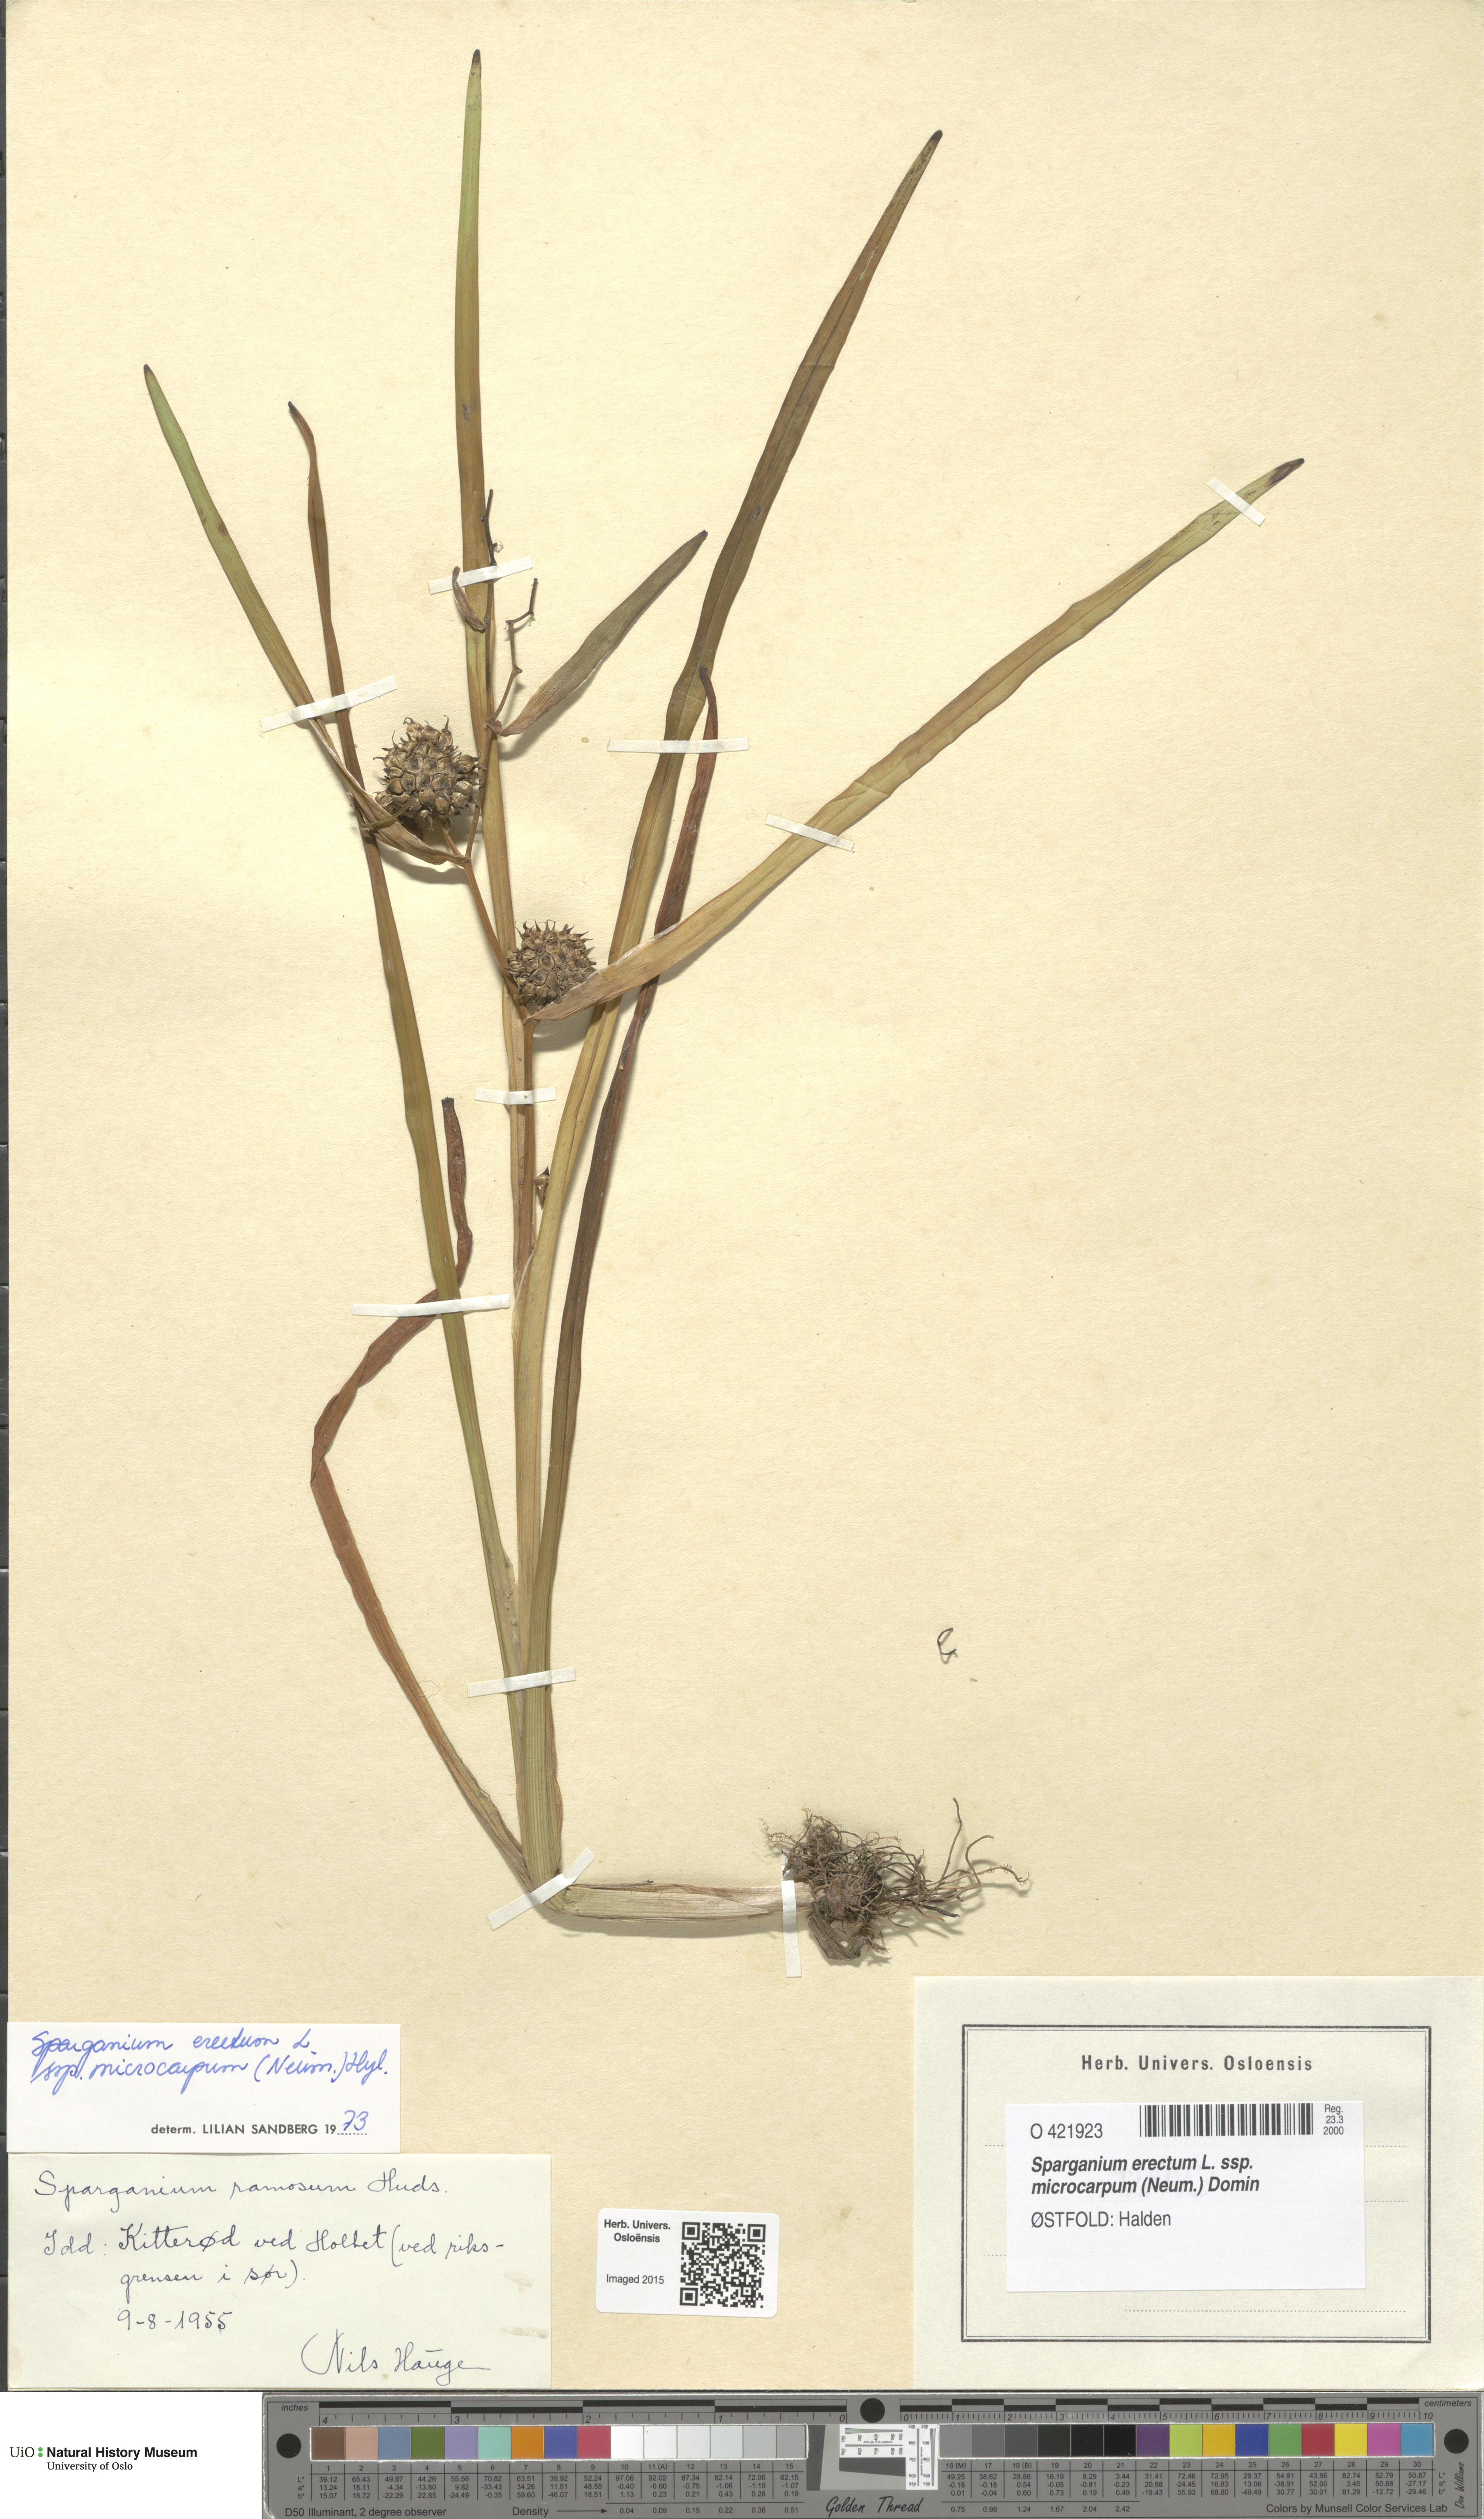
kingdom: Plantae
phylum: Tracheophyta
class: Liliopsida
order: Poales
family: Typhaceae
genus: Sparganium
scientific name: Sparganium erectum
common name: Branched bur-reed
